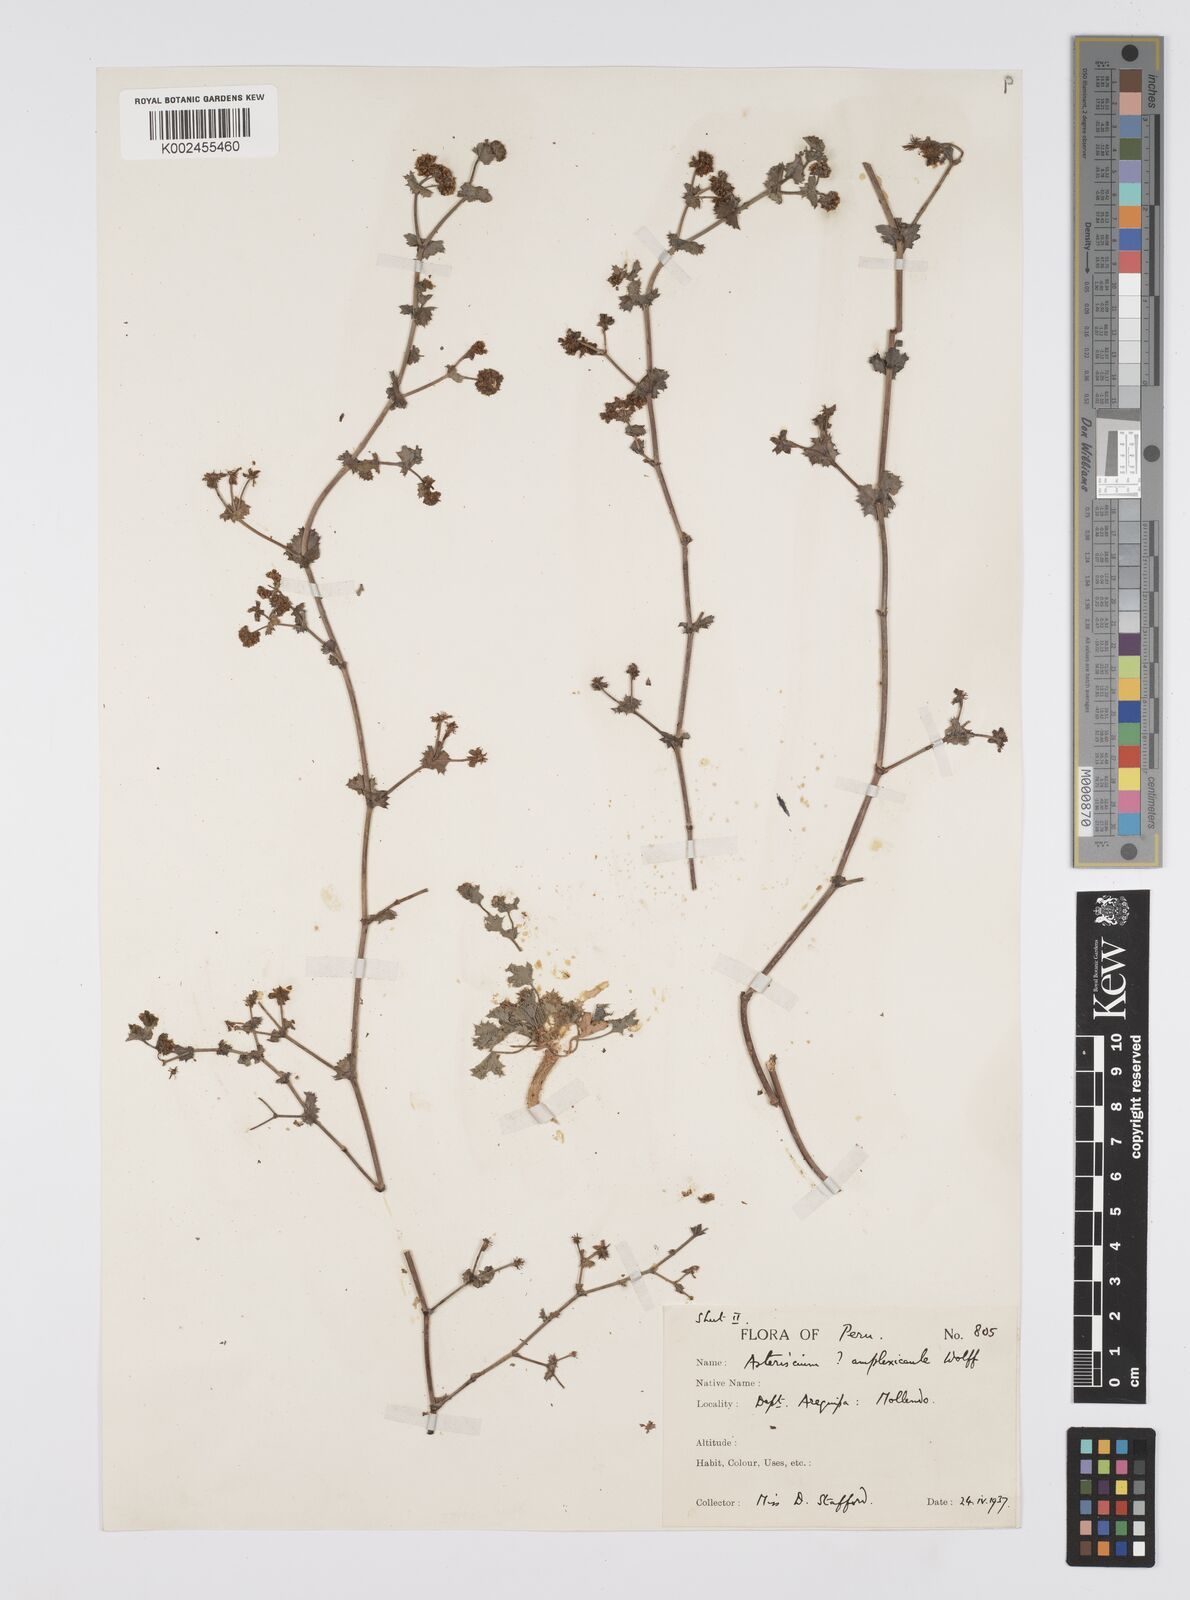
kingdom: Plantae
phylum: Tracheophyta
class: Magnoliopsida
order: Apiales
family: Apiaceae
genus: Domeykoa
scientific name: Domeykoa amplexicaulis
